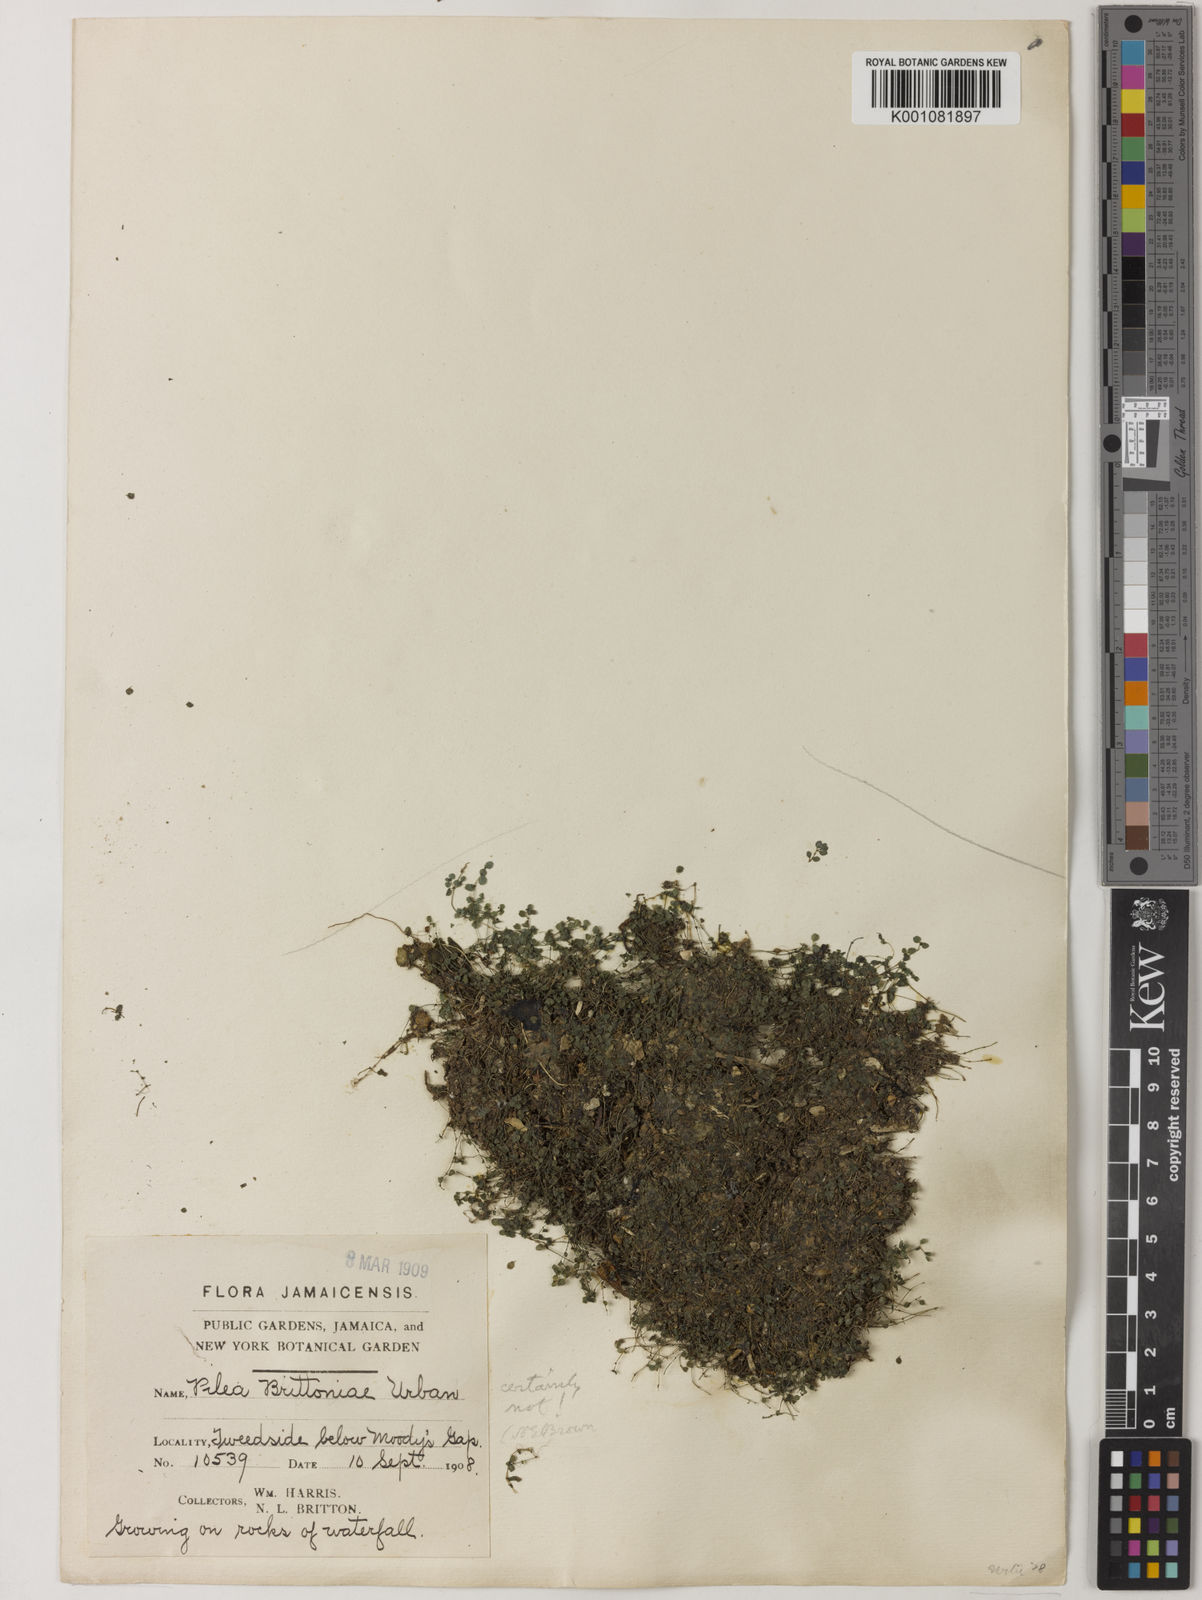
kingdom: Plantae
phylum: Tracheophyta
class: Magnoliopsida
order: Rosales
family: Urticaceae
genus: Pilea
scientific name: Pilea brittoniae
